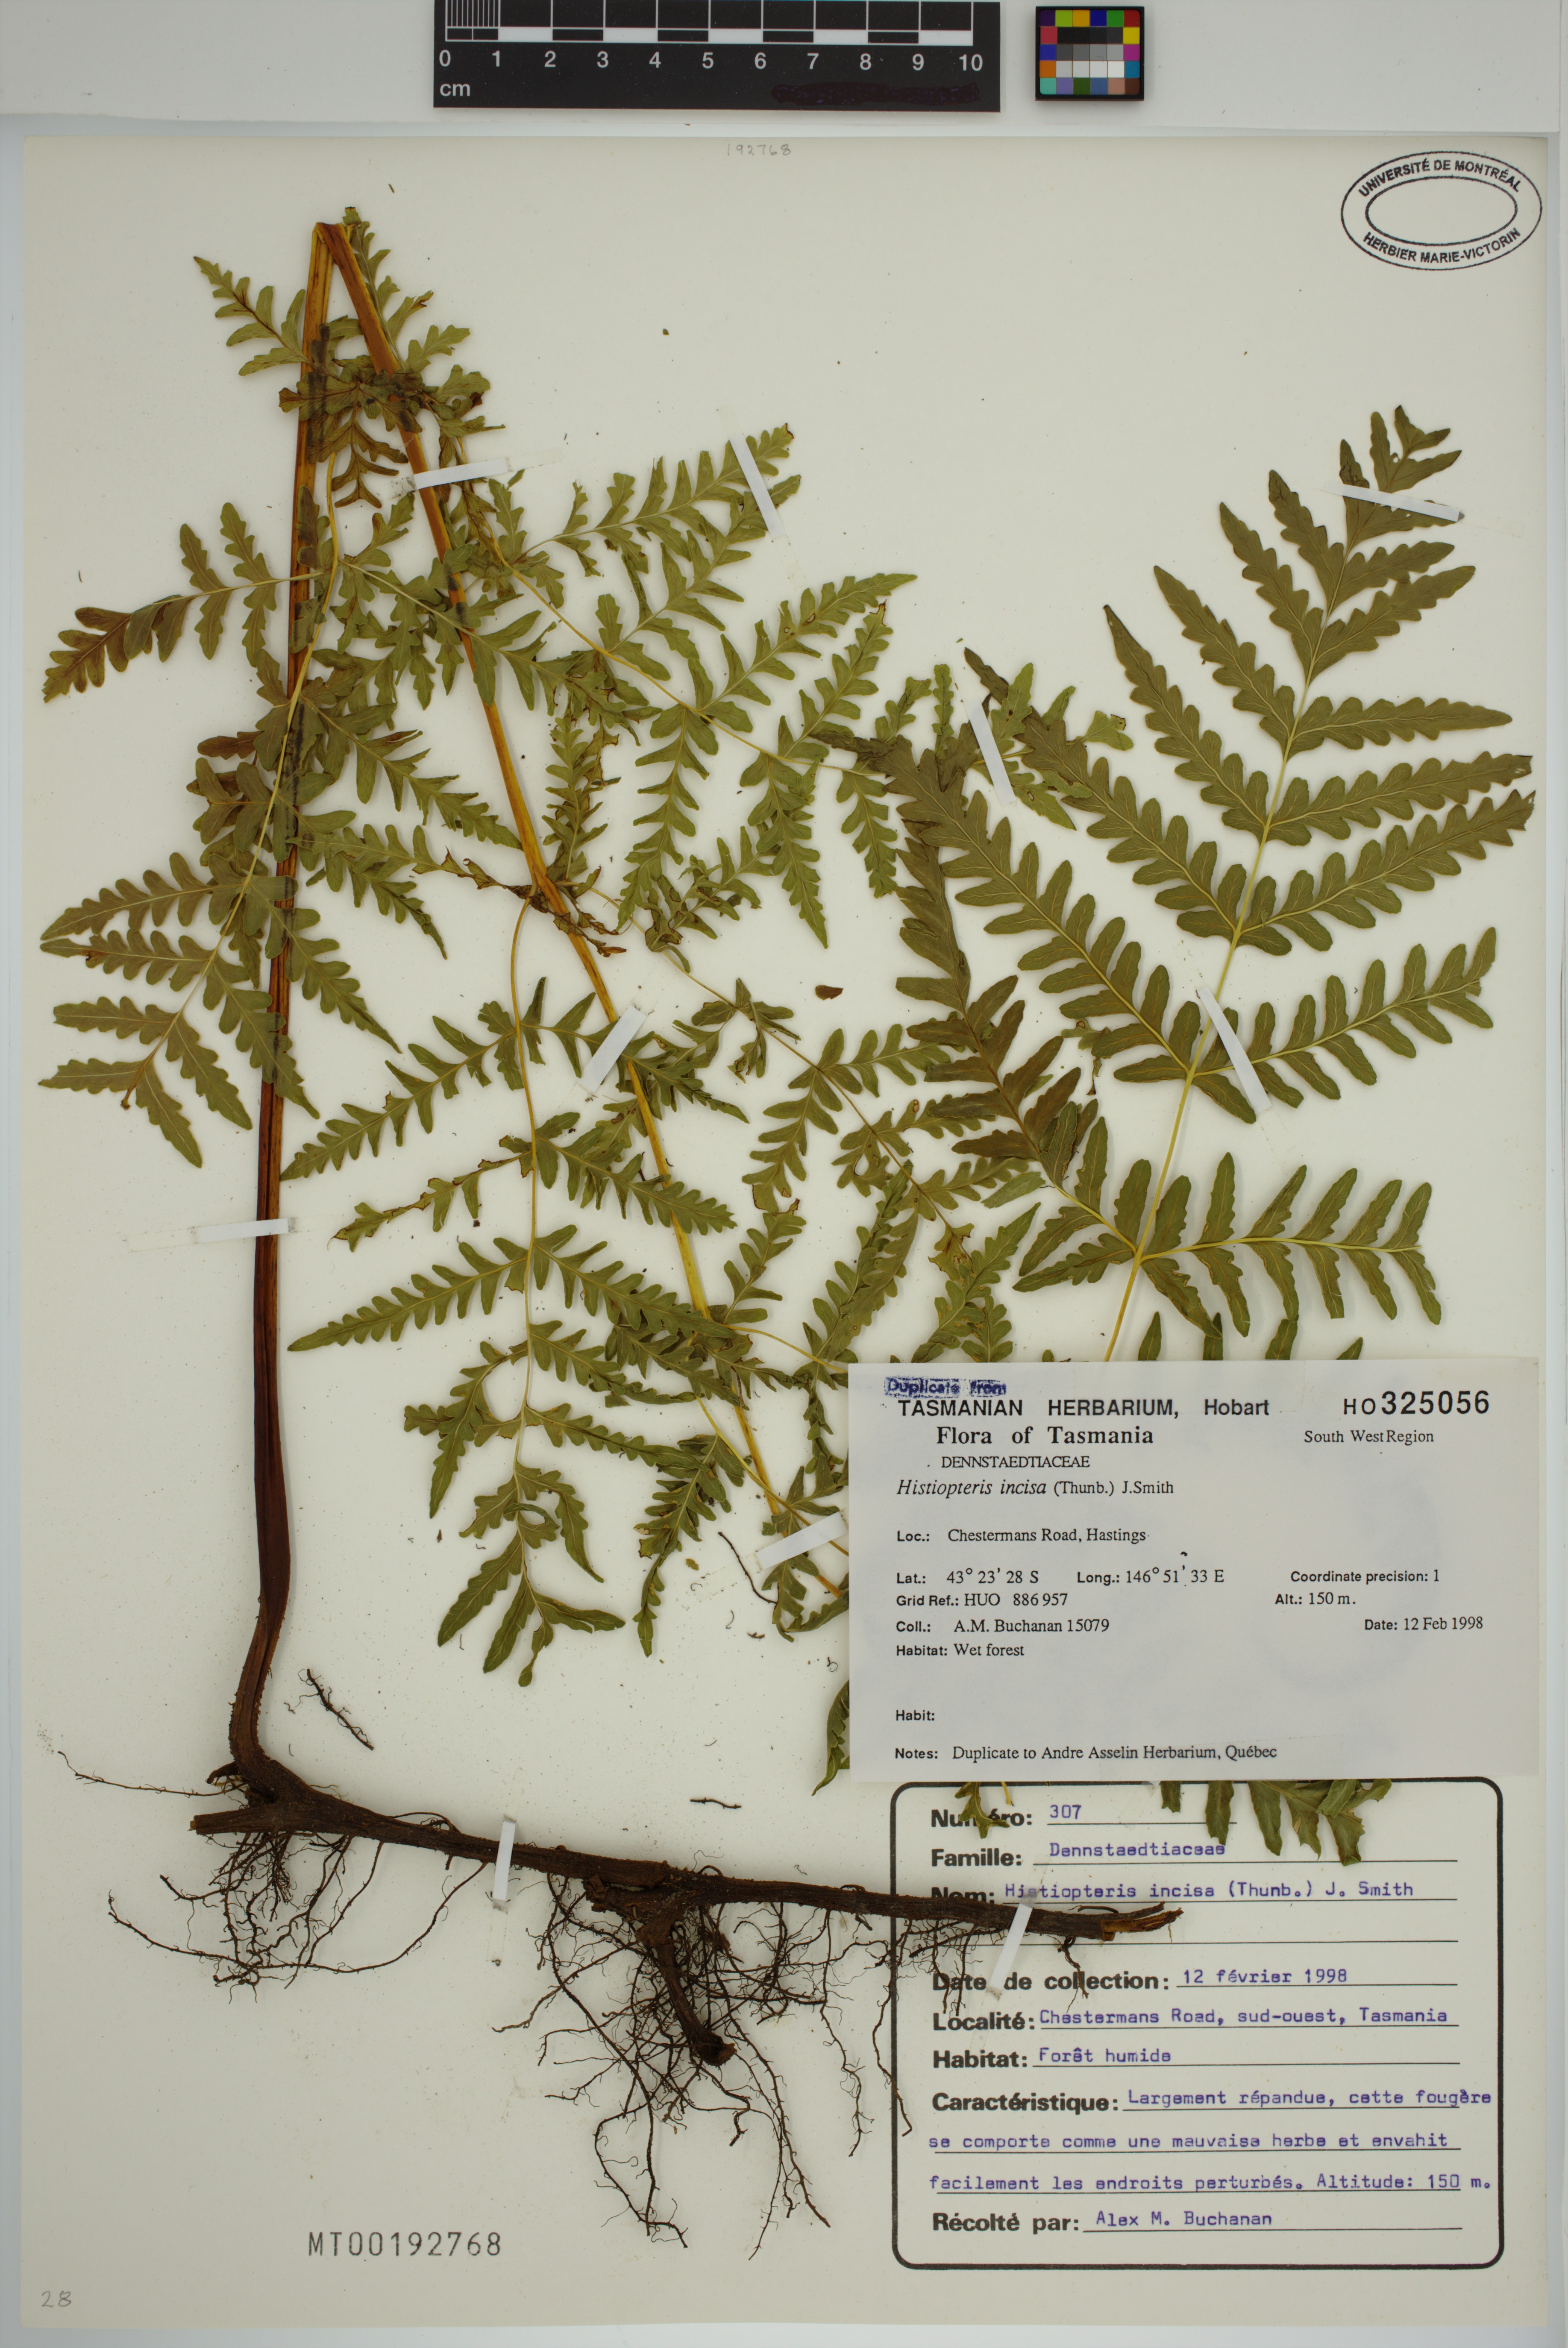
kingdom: Plantae
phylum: Tracheophyta
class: Polypodiopsida
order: Polypodiales
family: Dennstaedtiaceae
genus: Histiopteris
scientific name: Histiopteris incisa
